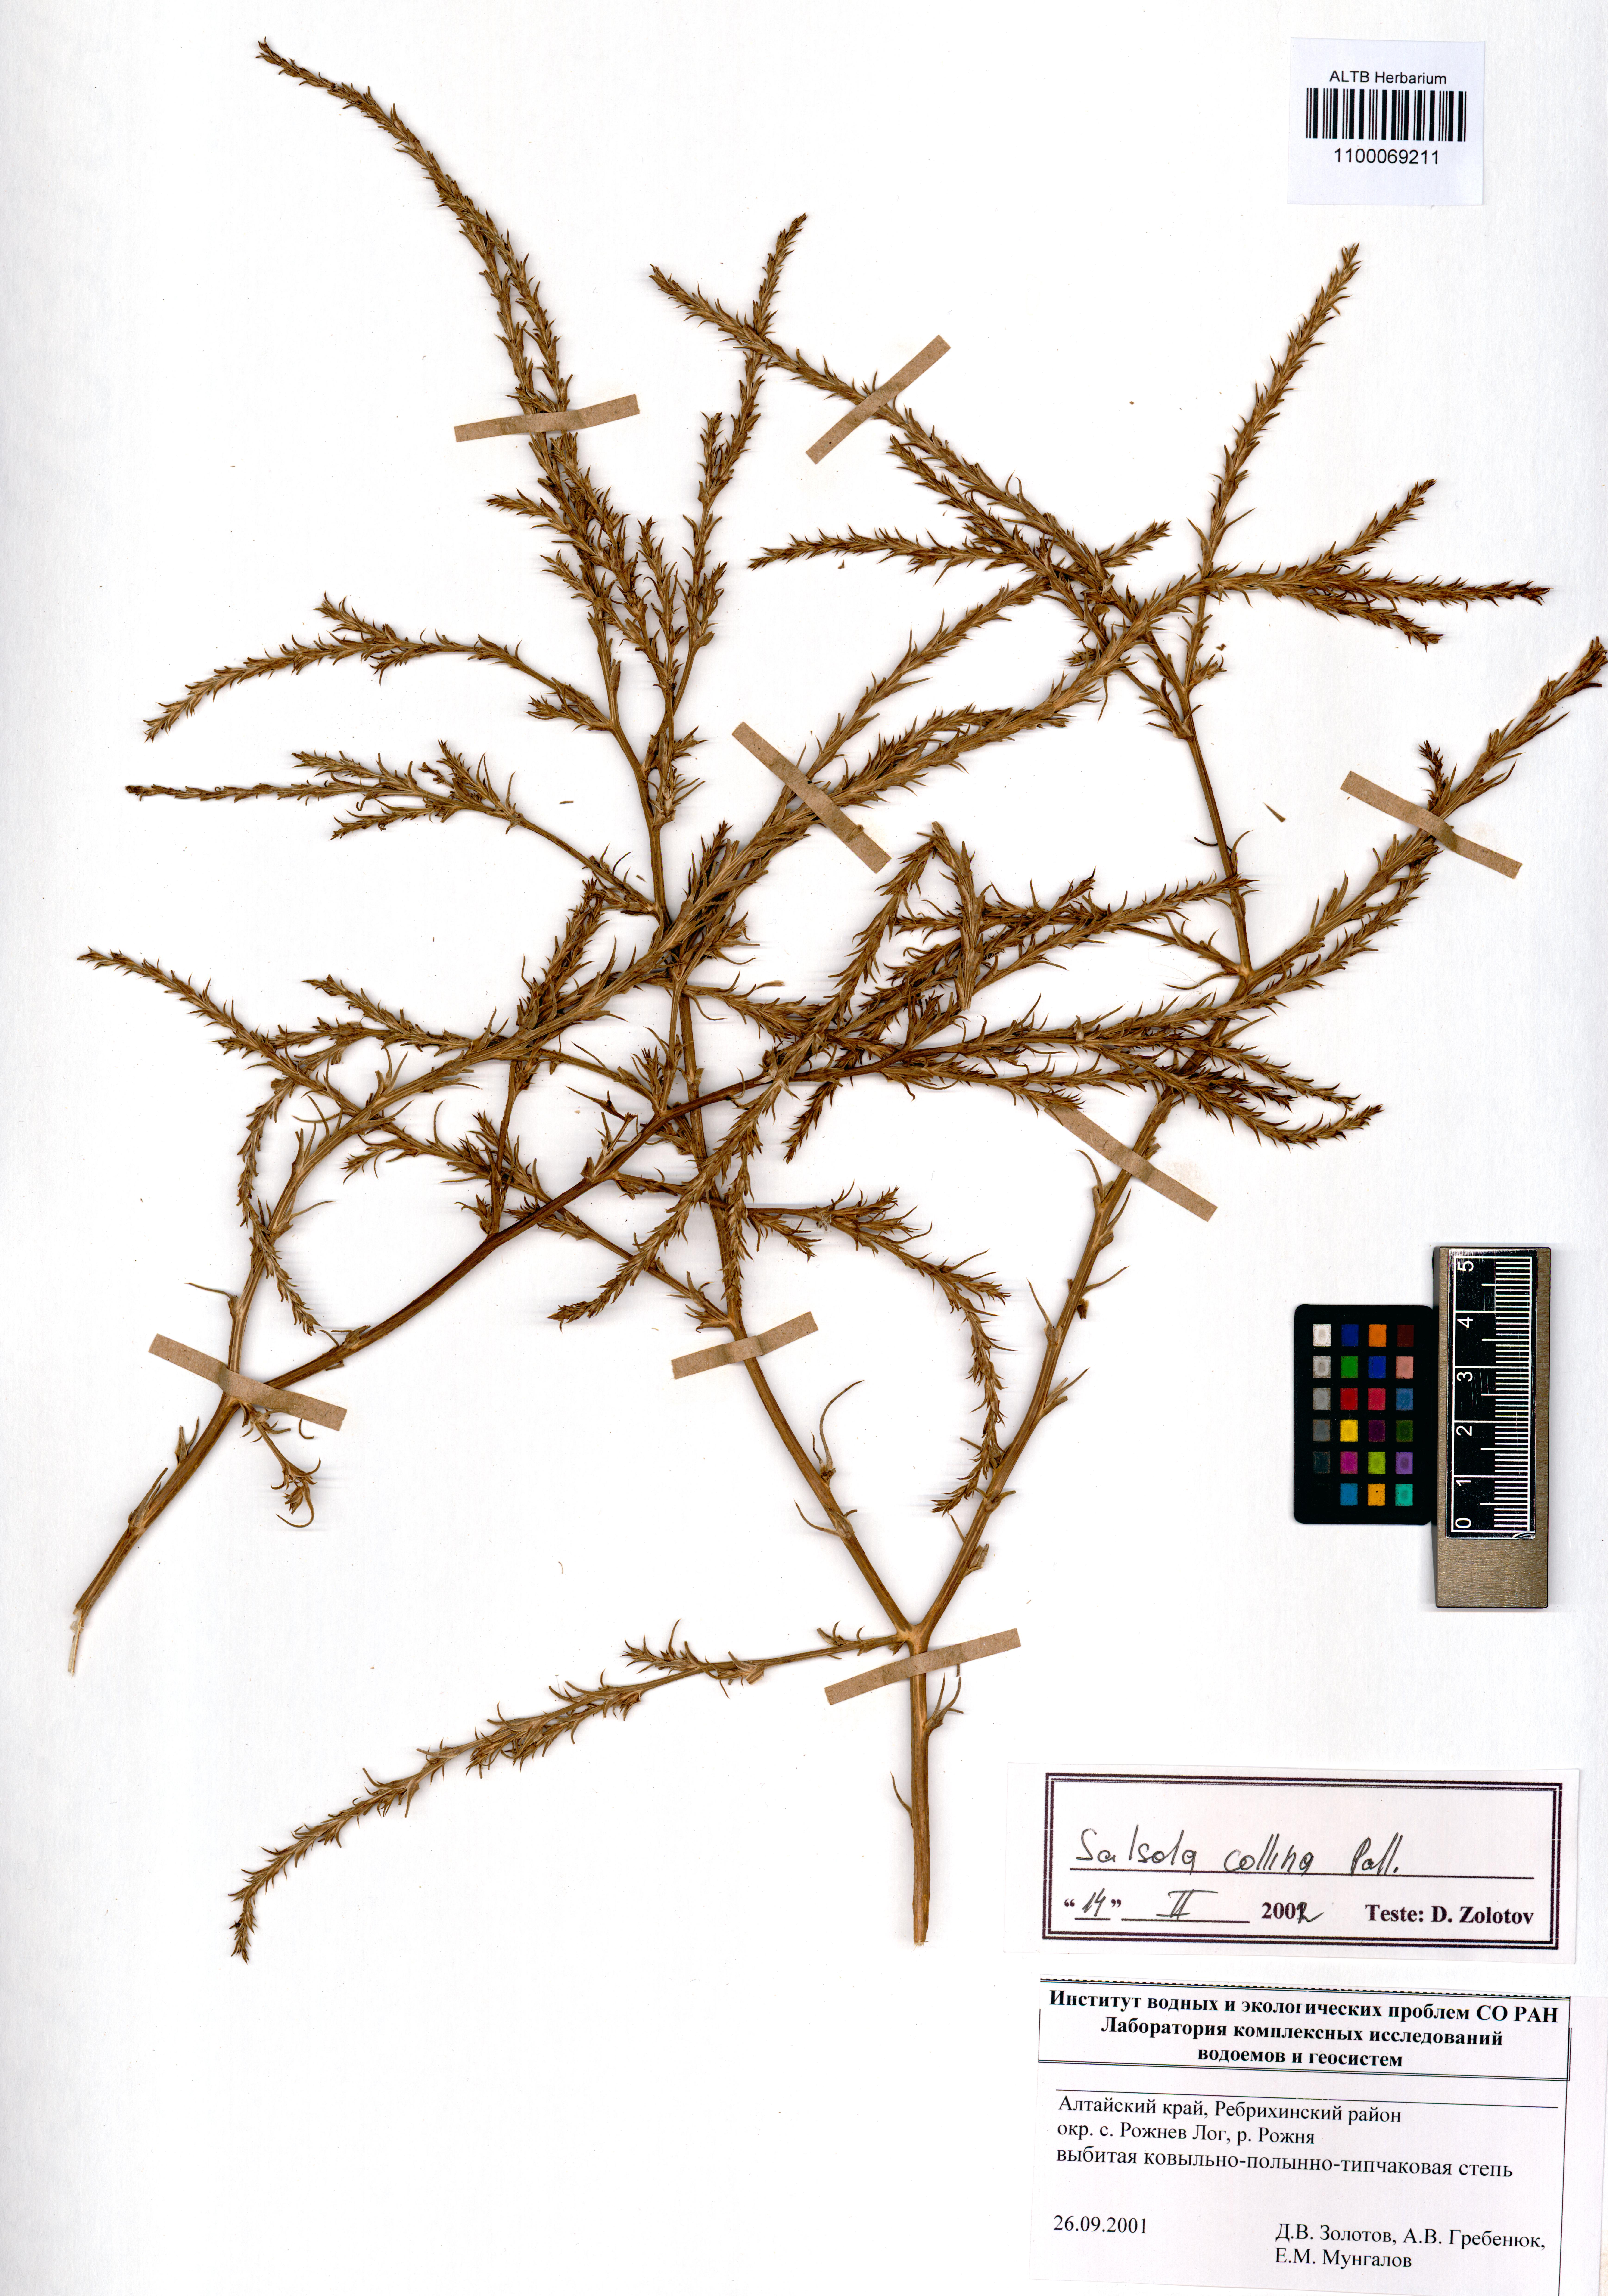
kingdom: Plantae
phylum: Tracheophyta
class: Magnoliopsida
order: Caryophyllales
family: Amaranthaceae
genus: Salsola
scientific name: Salsola collina
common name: Tumbleweed
